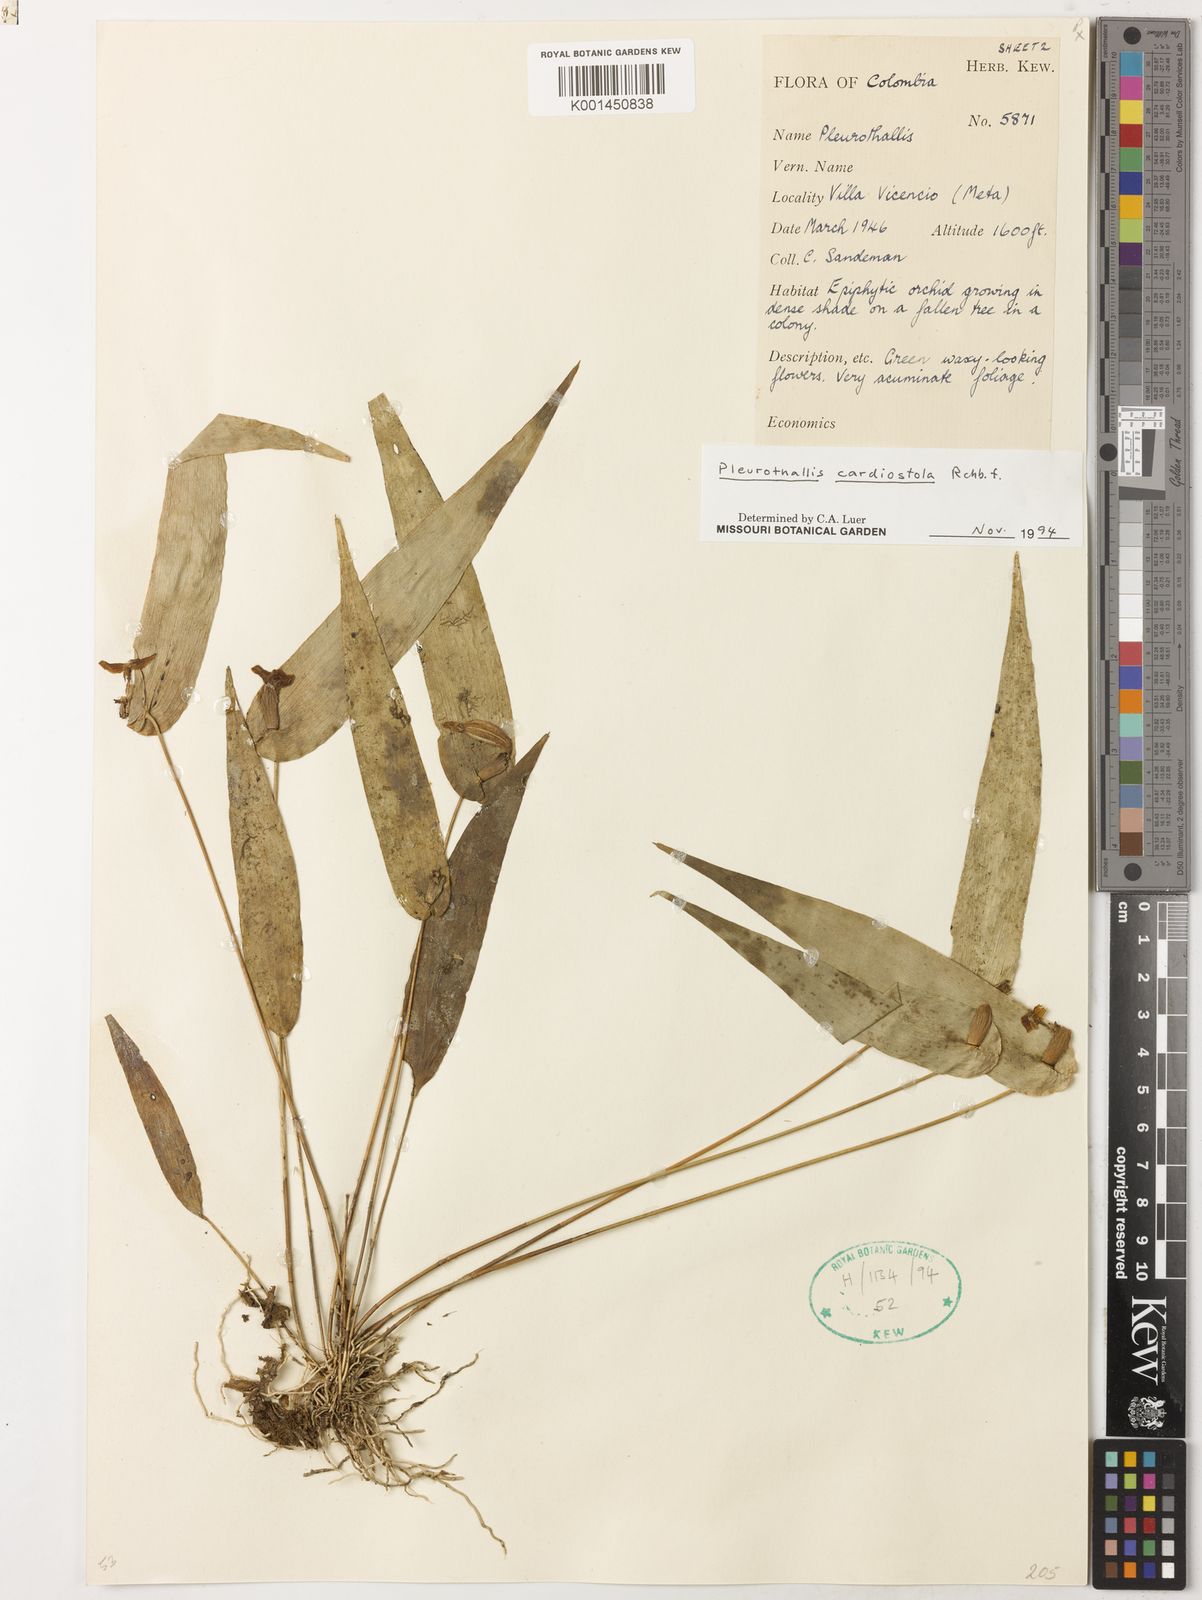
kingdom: Plantae
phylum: Tracheophyta
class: Liliopsida
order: Asparagales
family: Orchidaceae
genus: Pleurothallis
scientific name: Pleurothallis cardiostola
